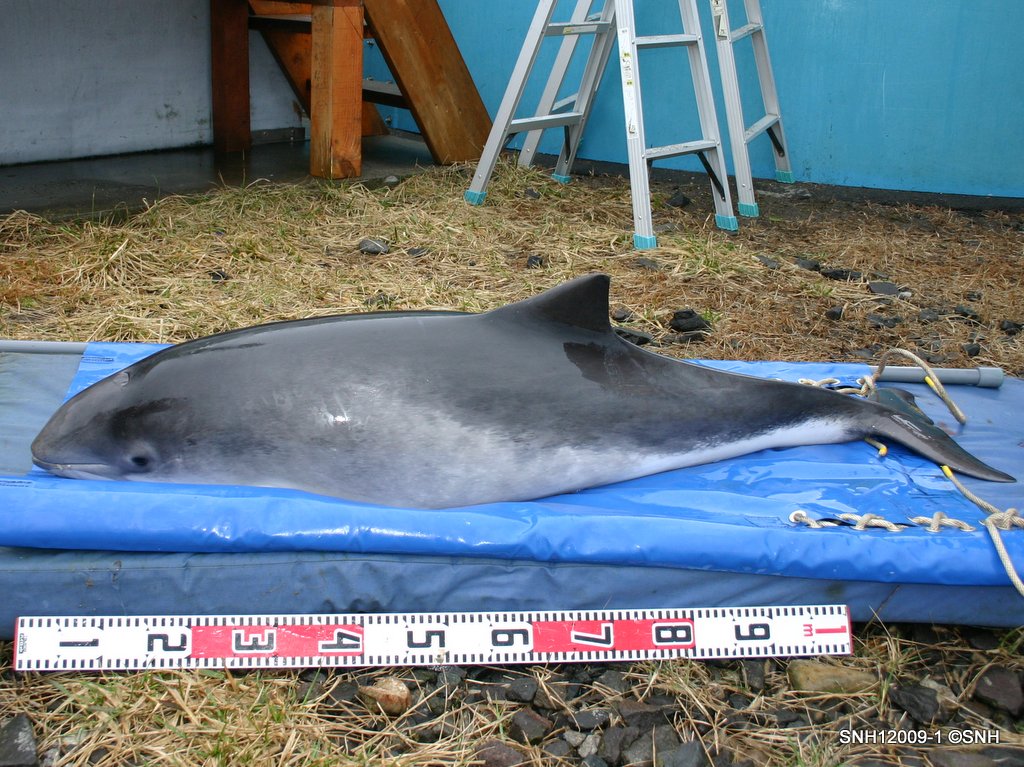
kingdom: Animalia
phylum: Chordata
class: Mammalia
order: Cetacea
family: Phocoenidae
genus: Phocoena
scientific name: Phocoena phocoena
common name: Harbour porpoise
